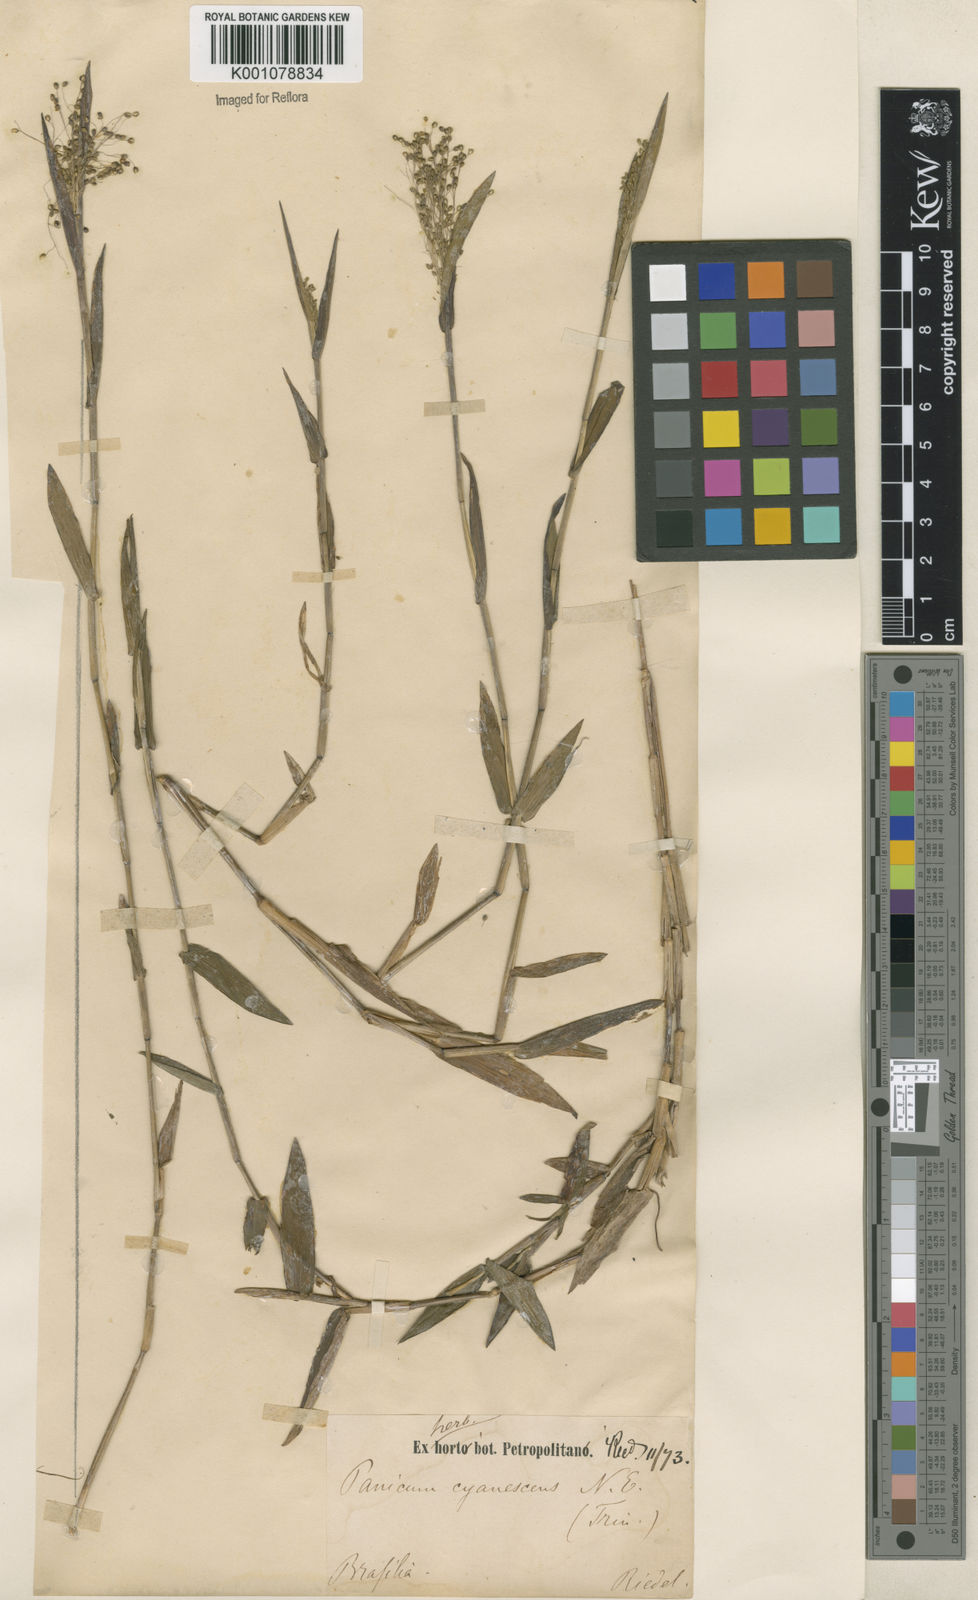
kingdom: Plantae
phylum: Tracheophyta
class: Liliopsida
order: Poales
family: Poaceae
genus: Trichanthecium
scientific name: Trichanthecium schwackeanum
